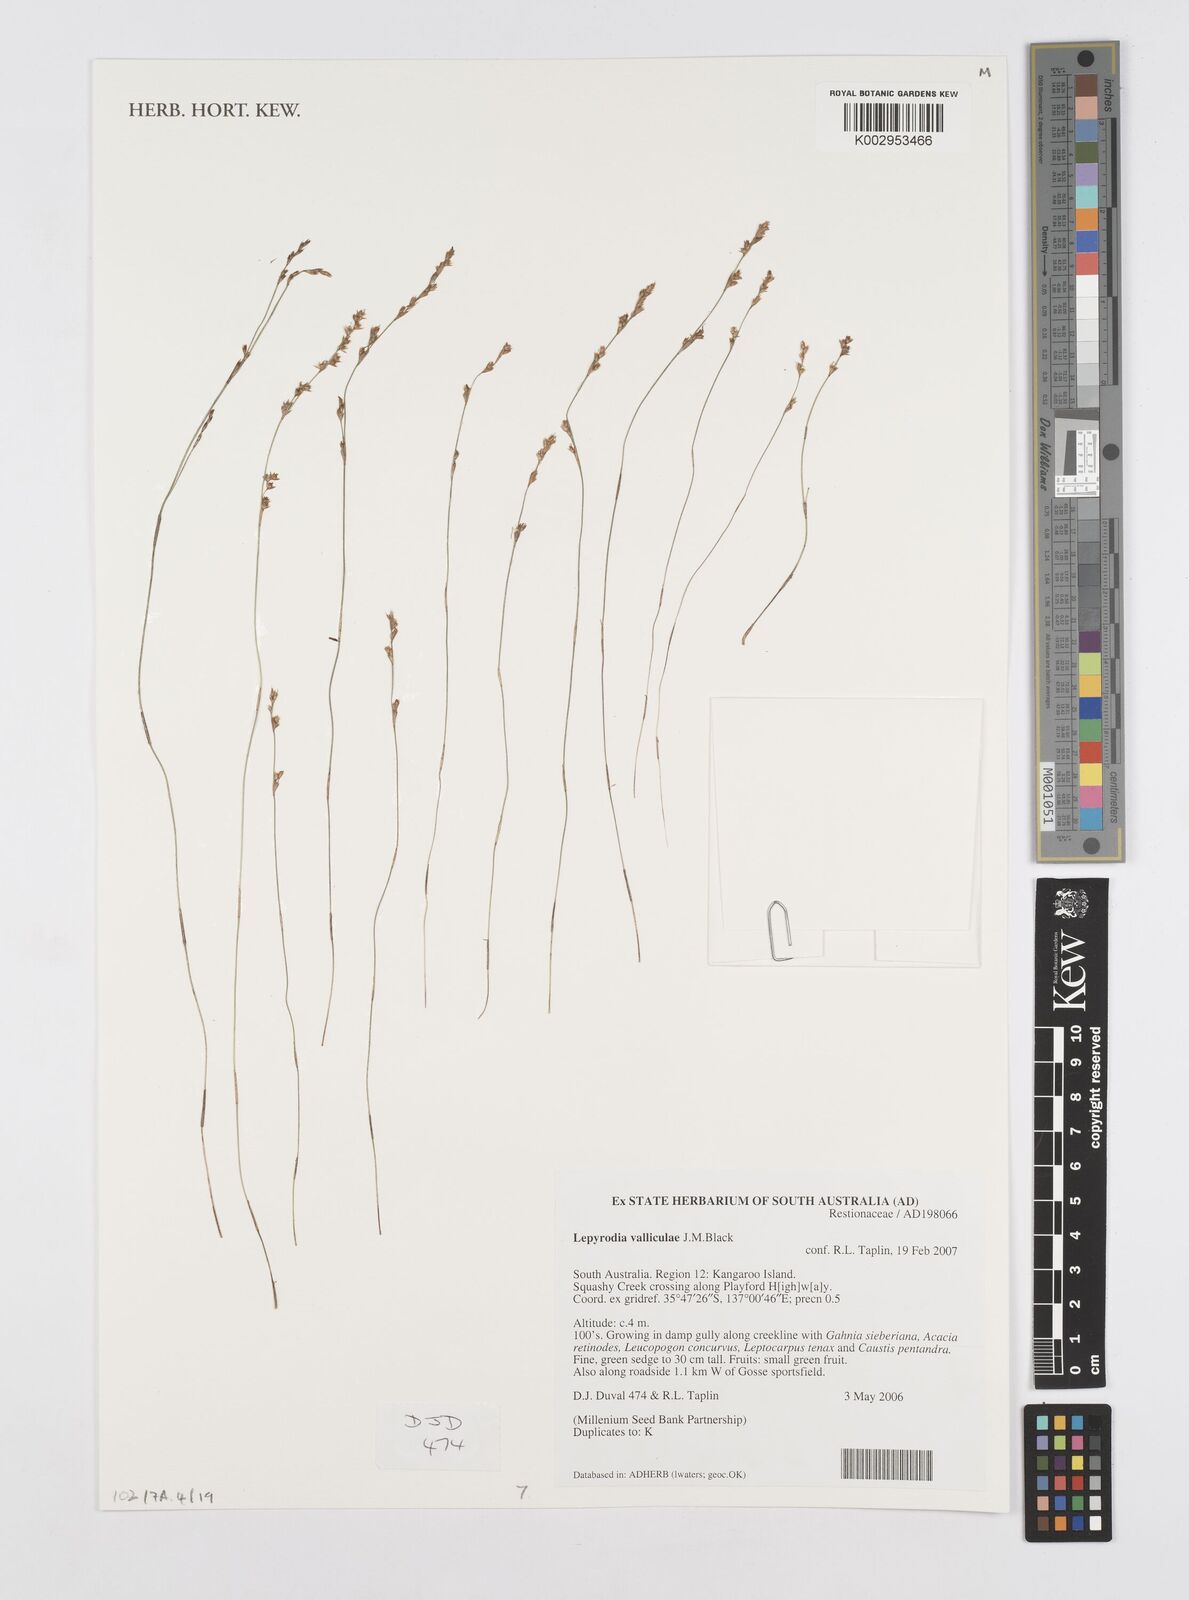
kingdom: Plantae
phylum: Tracheophyta
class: Liliopsida
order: Poales
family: Restionaceae
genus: Lepyrodia
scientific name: Lepyrodia valliculae
